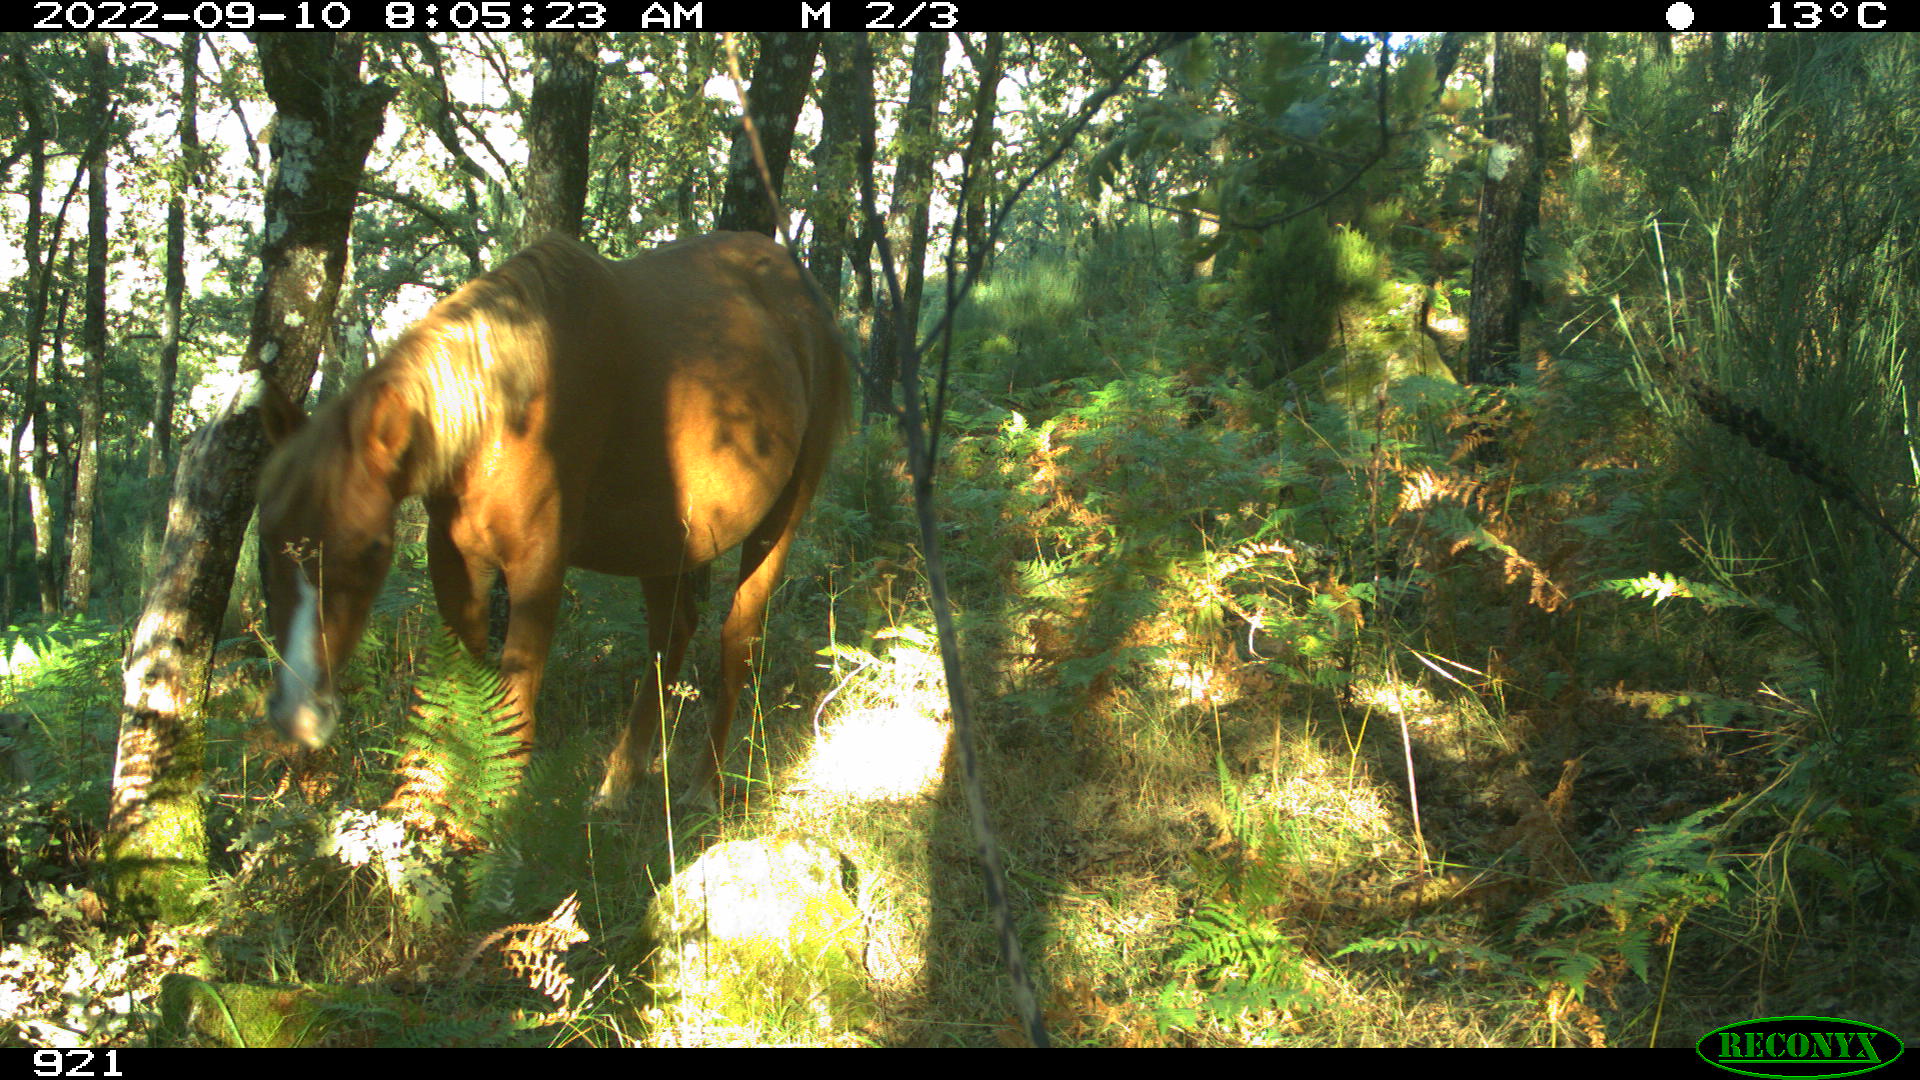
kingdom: Animalia
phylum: Chordata
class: Mammalia
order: Perissodactyla
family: Equidae
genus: Equus
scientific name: Equus caballus
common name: Horse
